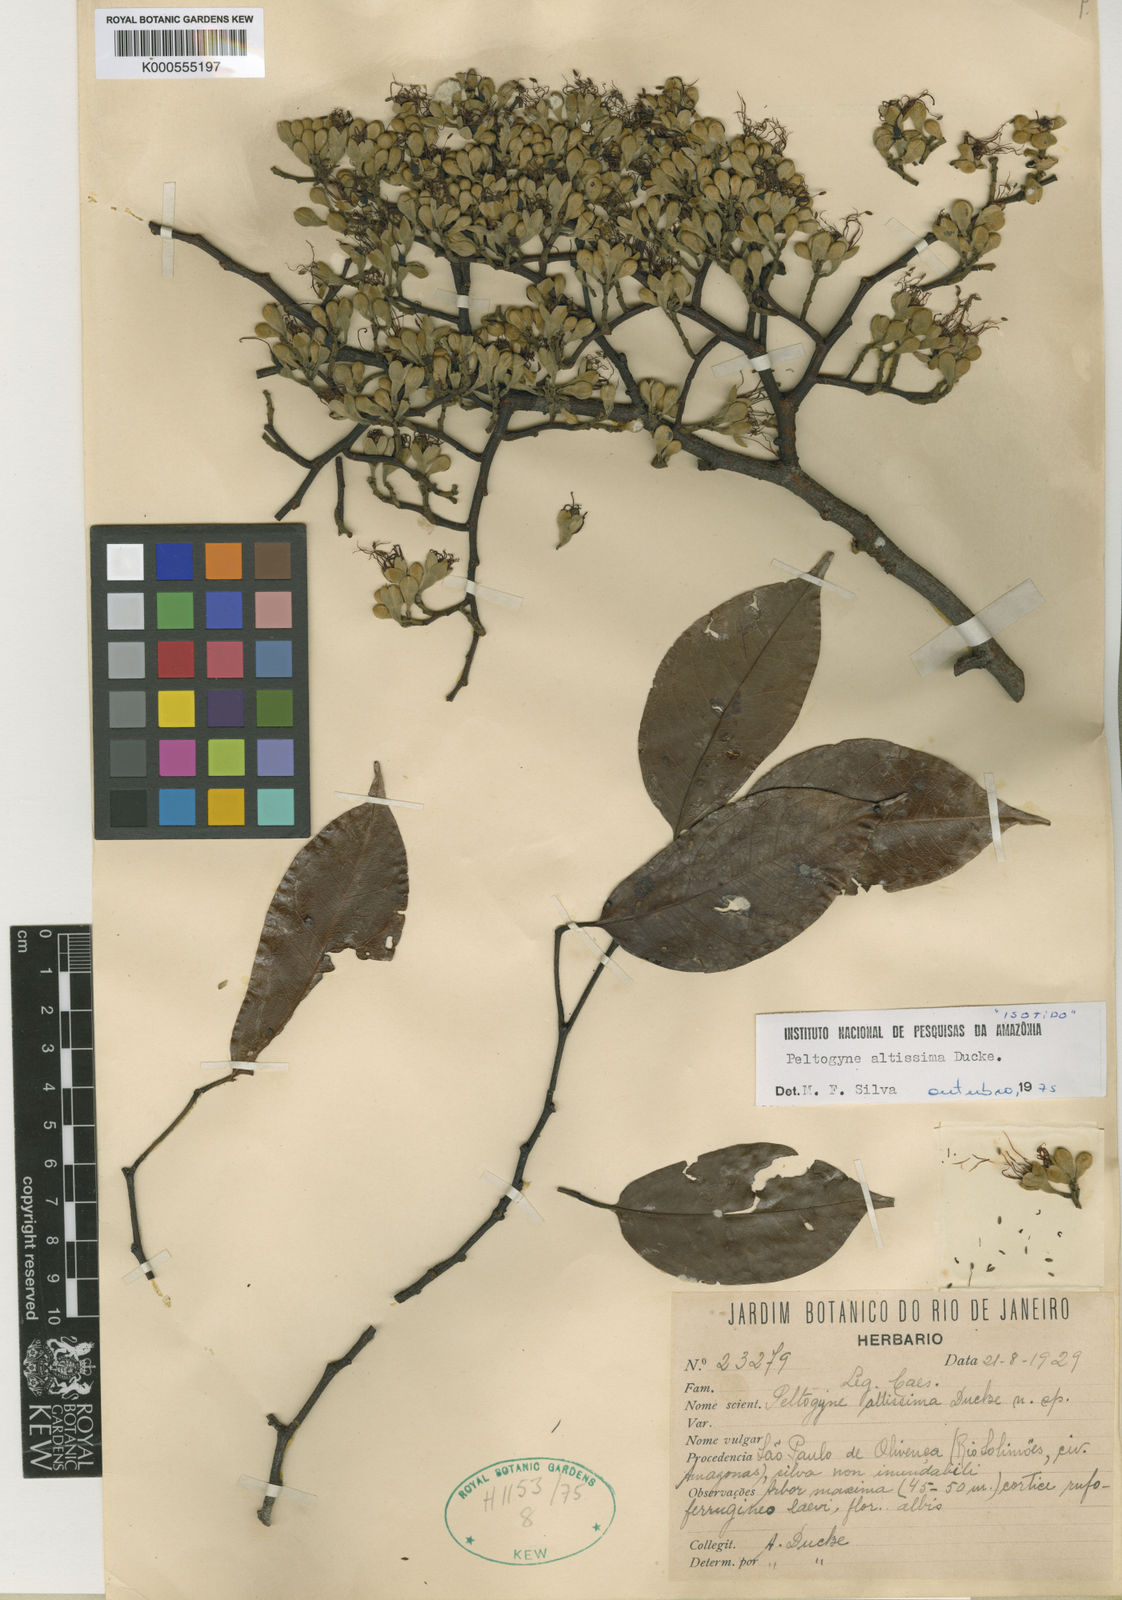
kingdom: Plantae
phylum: Tracheophyta
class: Magnoliopsida
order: Fabales
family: Fabaceae
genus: Peltogyne
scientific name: Peltogyne altissima
